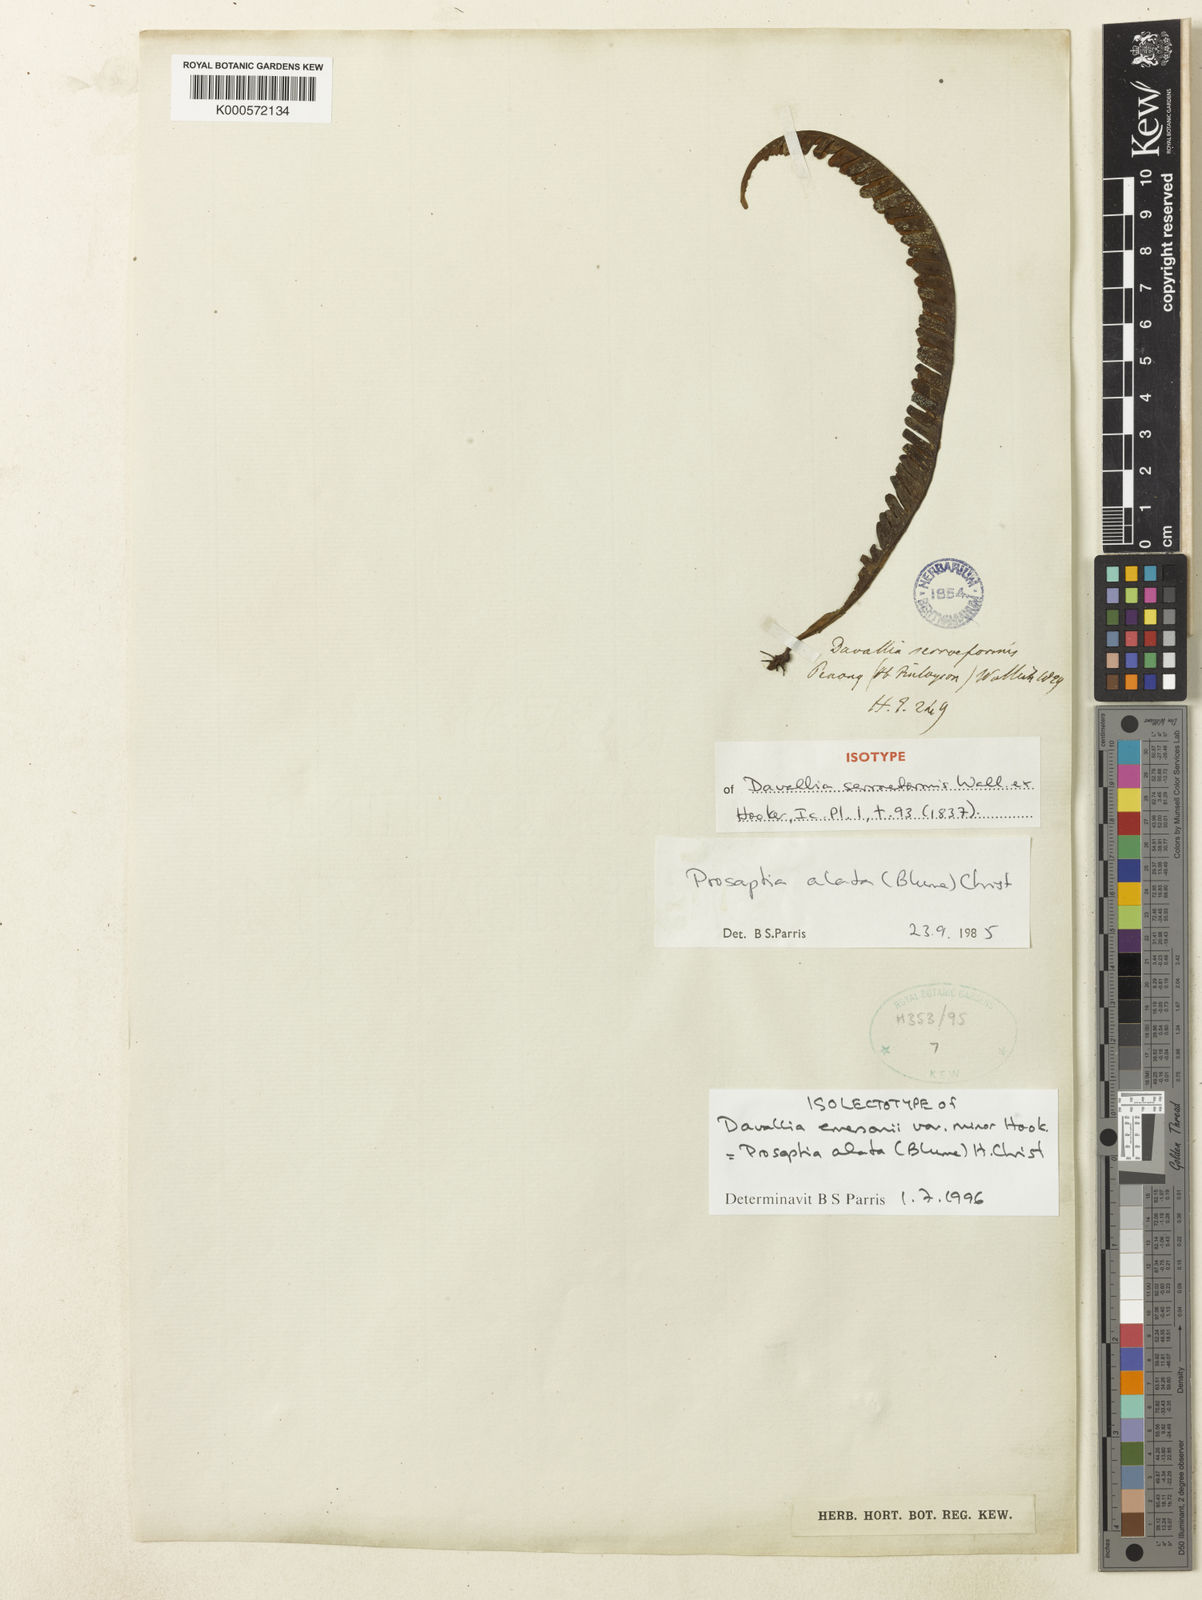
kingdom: Plantae
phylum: Tracheophyta
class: Polypodiopsida
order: Polypodiales
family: Polypodiaceae
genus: Prosaptia
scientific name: Prosaptia alata
